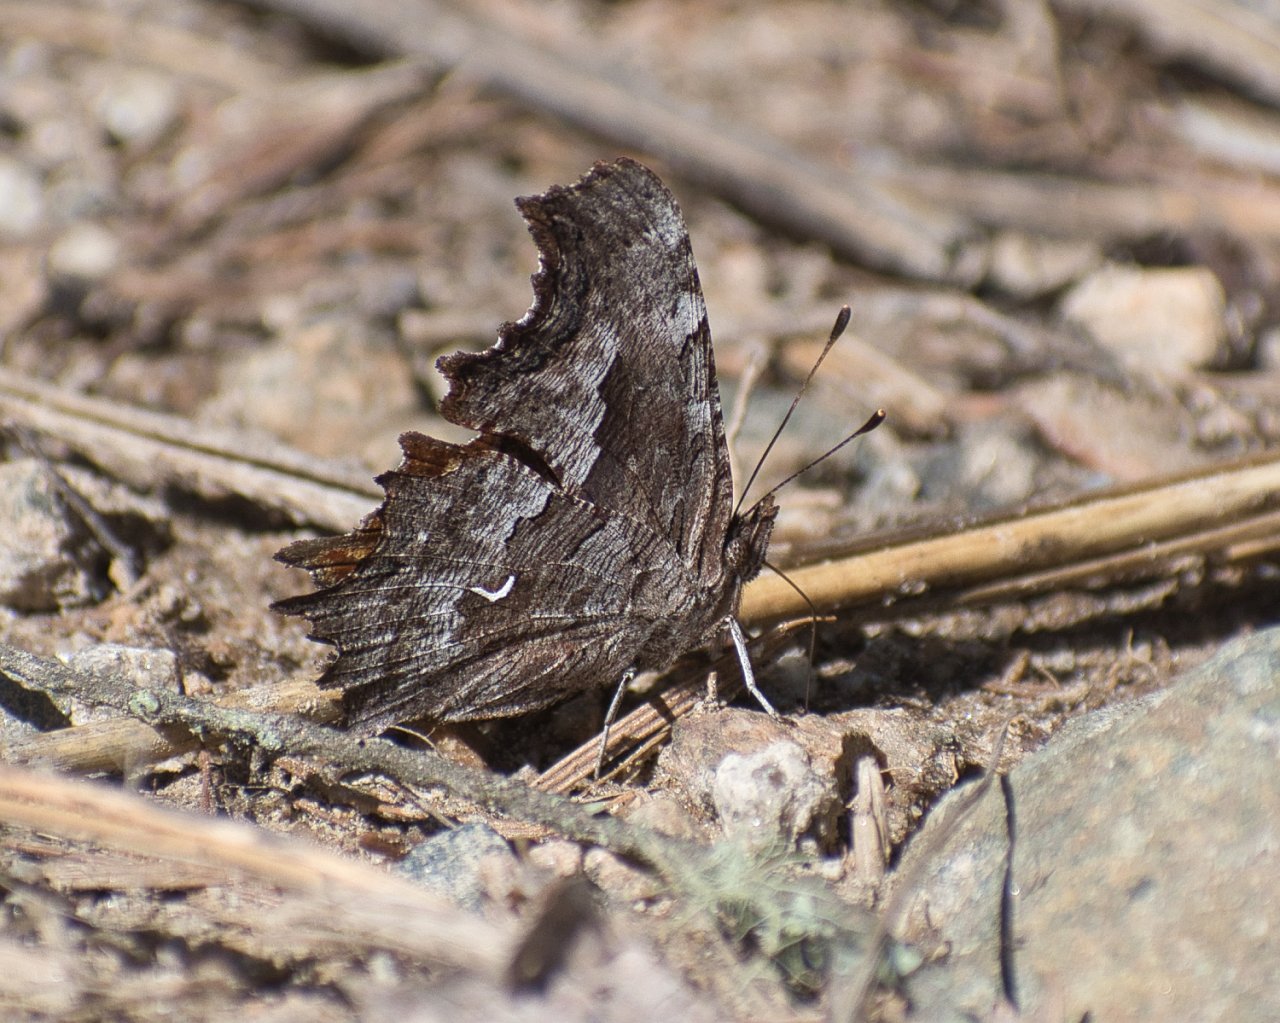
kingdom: Animalia
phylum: Arthropoda
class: Insecta
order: Lepidoptera
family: Nymphalidae
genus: Polygonia
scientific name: Polygonia gracilis
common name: Hoary Comma
